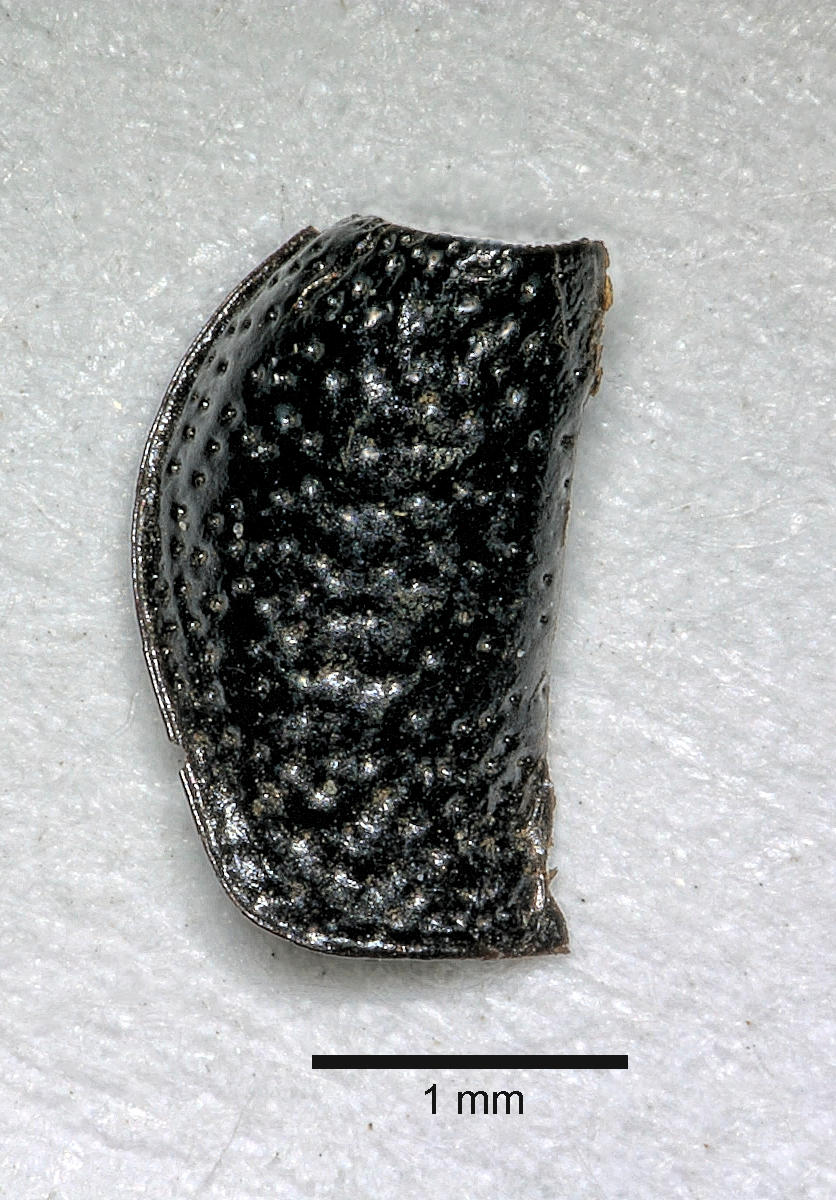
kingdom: Animalia
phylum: Arthropoda
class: Insecta
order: Coleoptera
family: Carabidae
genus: Dicheirus
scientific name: Dicheirus dilatatus
